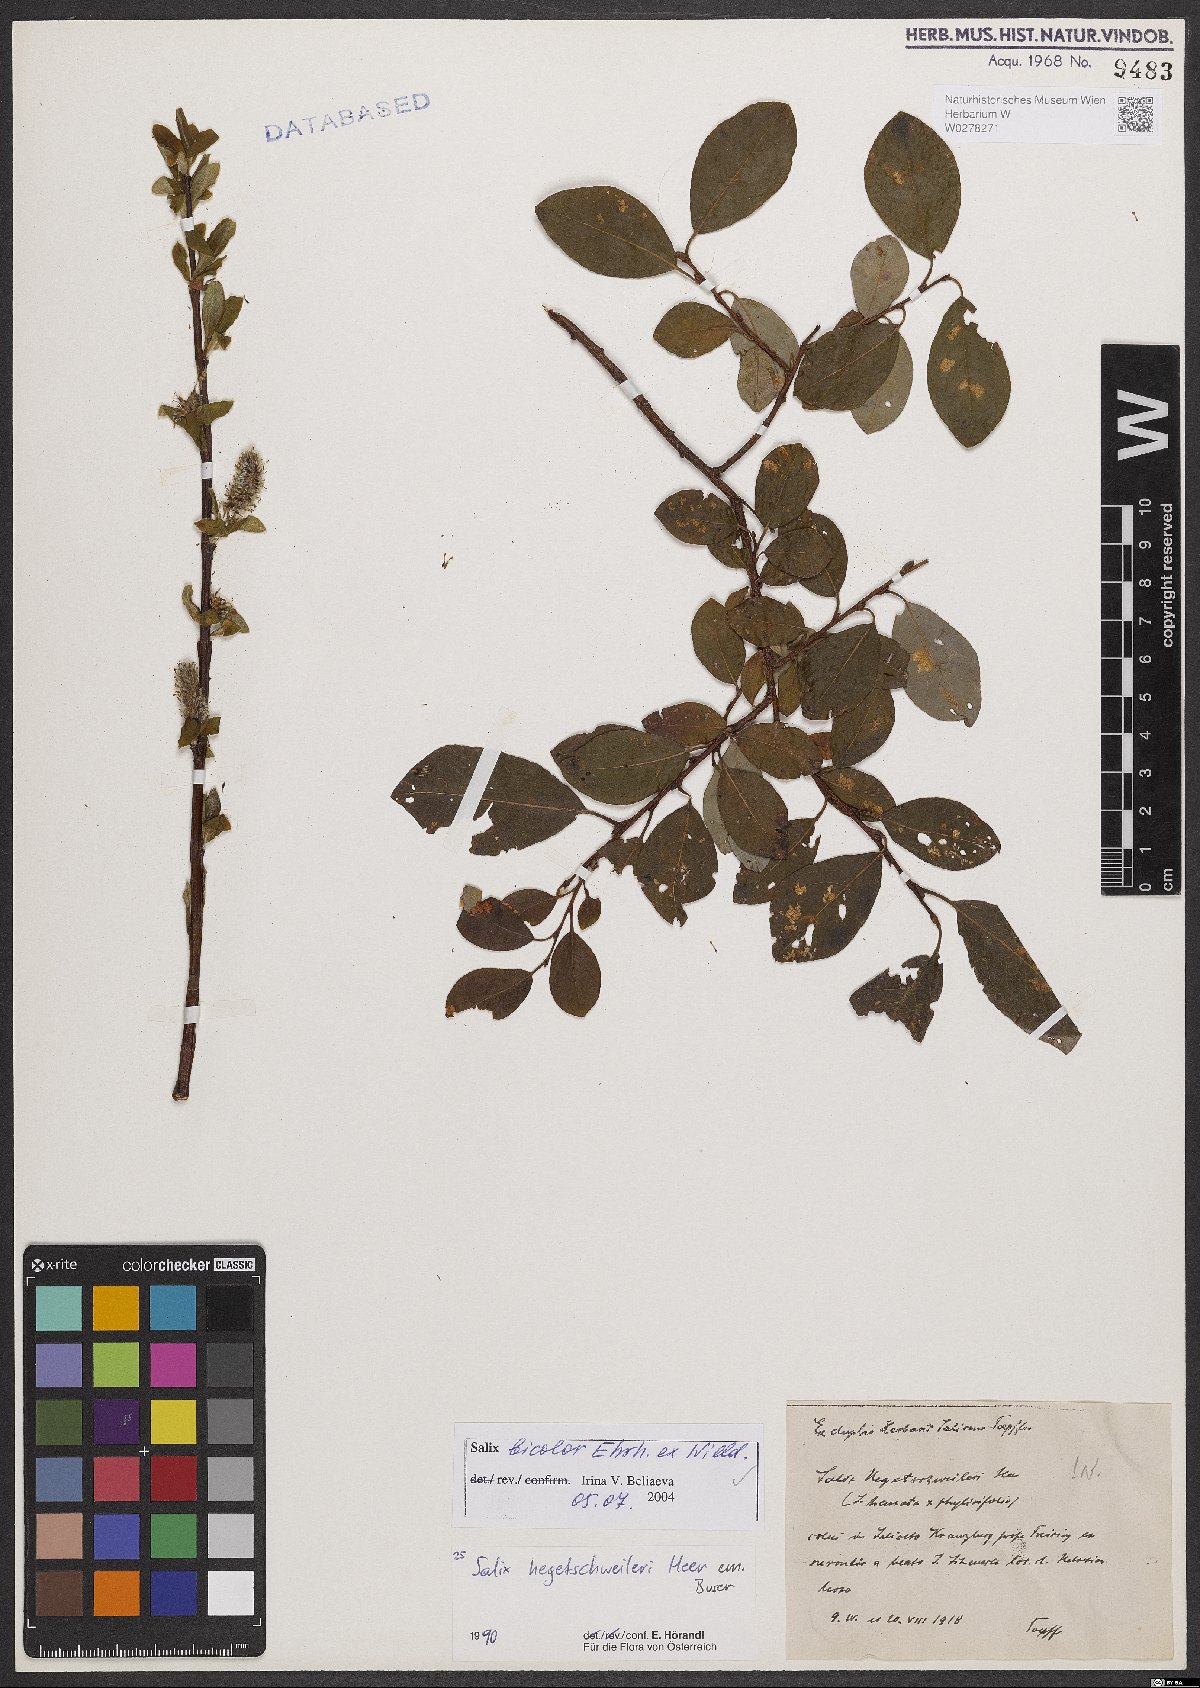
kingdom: Plantae
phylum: Tracheophyta
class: Magnoliopsida
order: Malpighiales
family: Salicaceae
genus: Salix
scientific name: Salix bicolor
